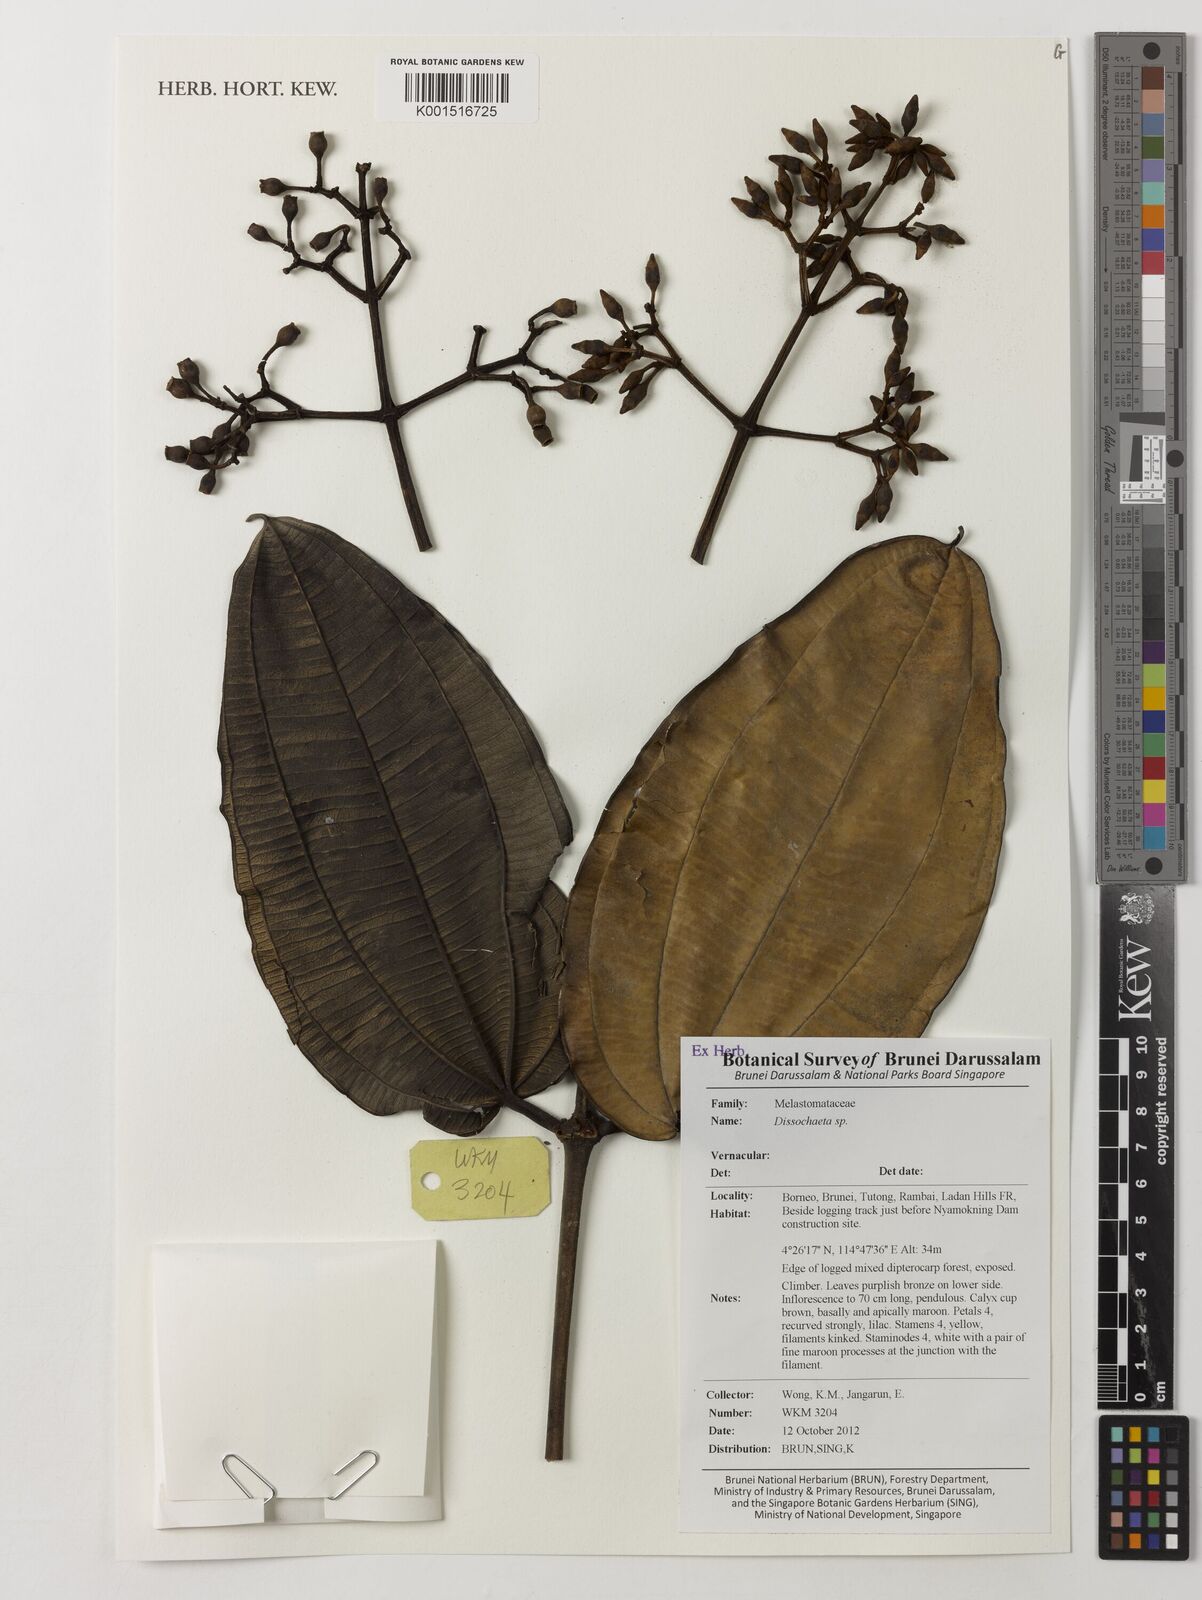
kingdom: Plantae
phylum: Tracheophyta
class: Magnoliopsida
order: Myrtales
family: Melastomataceae
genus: Dissochaeta
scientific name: Dissochaeta
